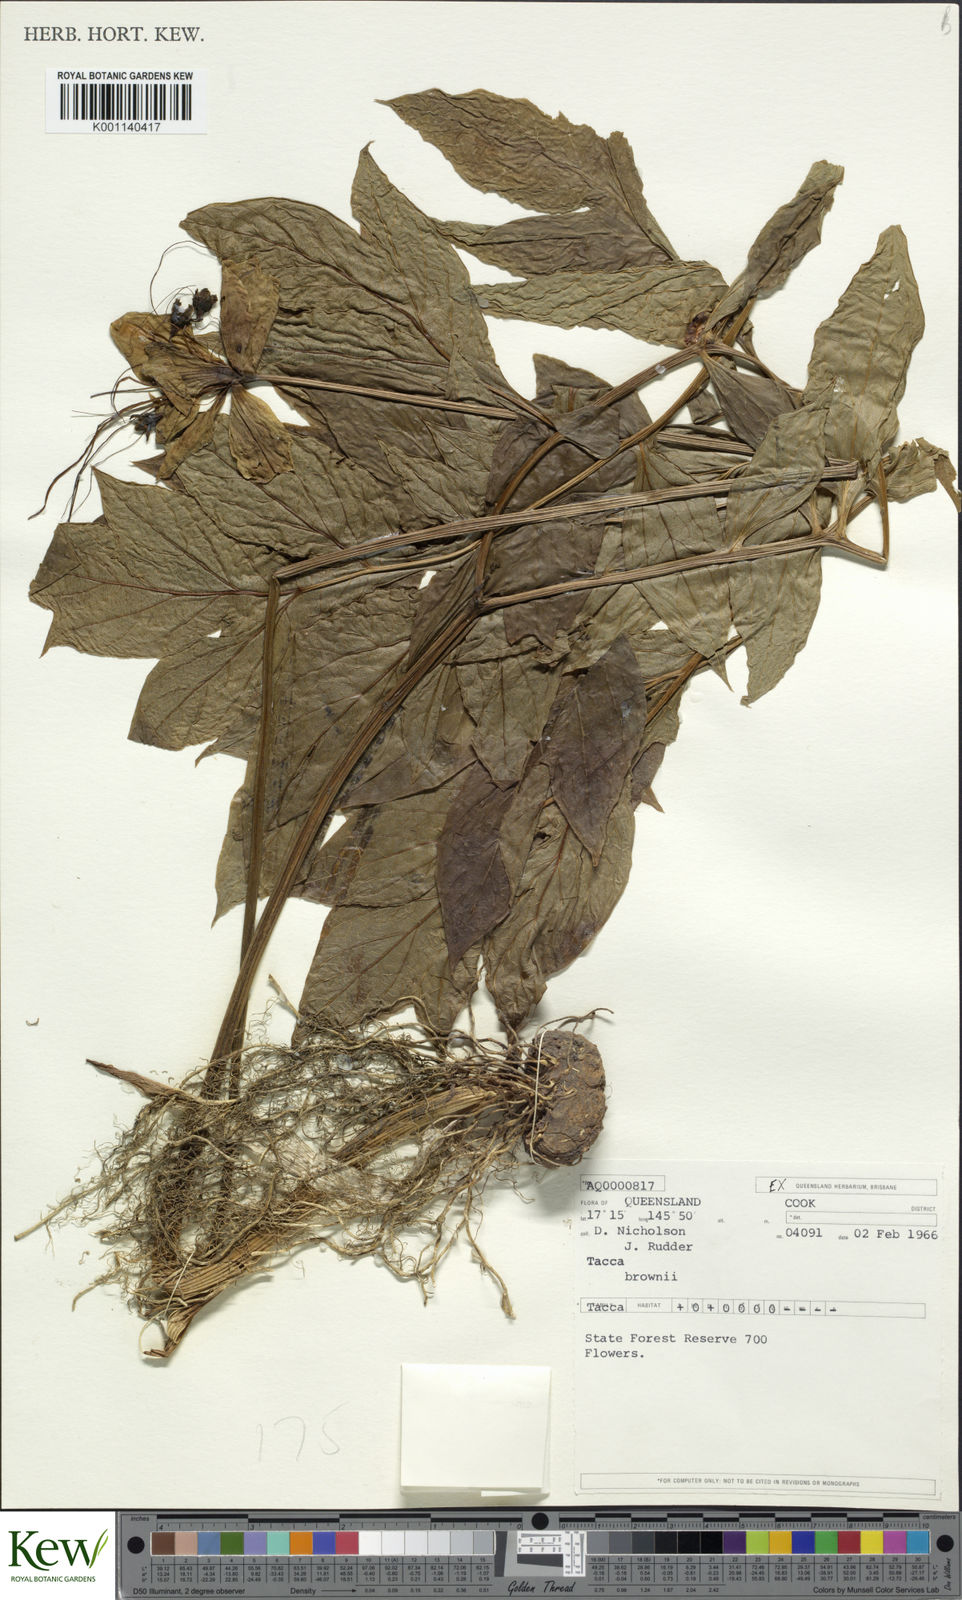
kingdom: Plantae
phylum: Tracheophyta
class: Liliopsida
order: Dioscoreales
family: Dioscoreaceae
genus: Tacca
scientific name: Tacca leontopetaloides
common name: Arrowroot
